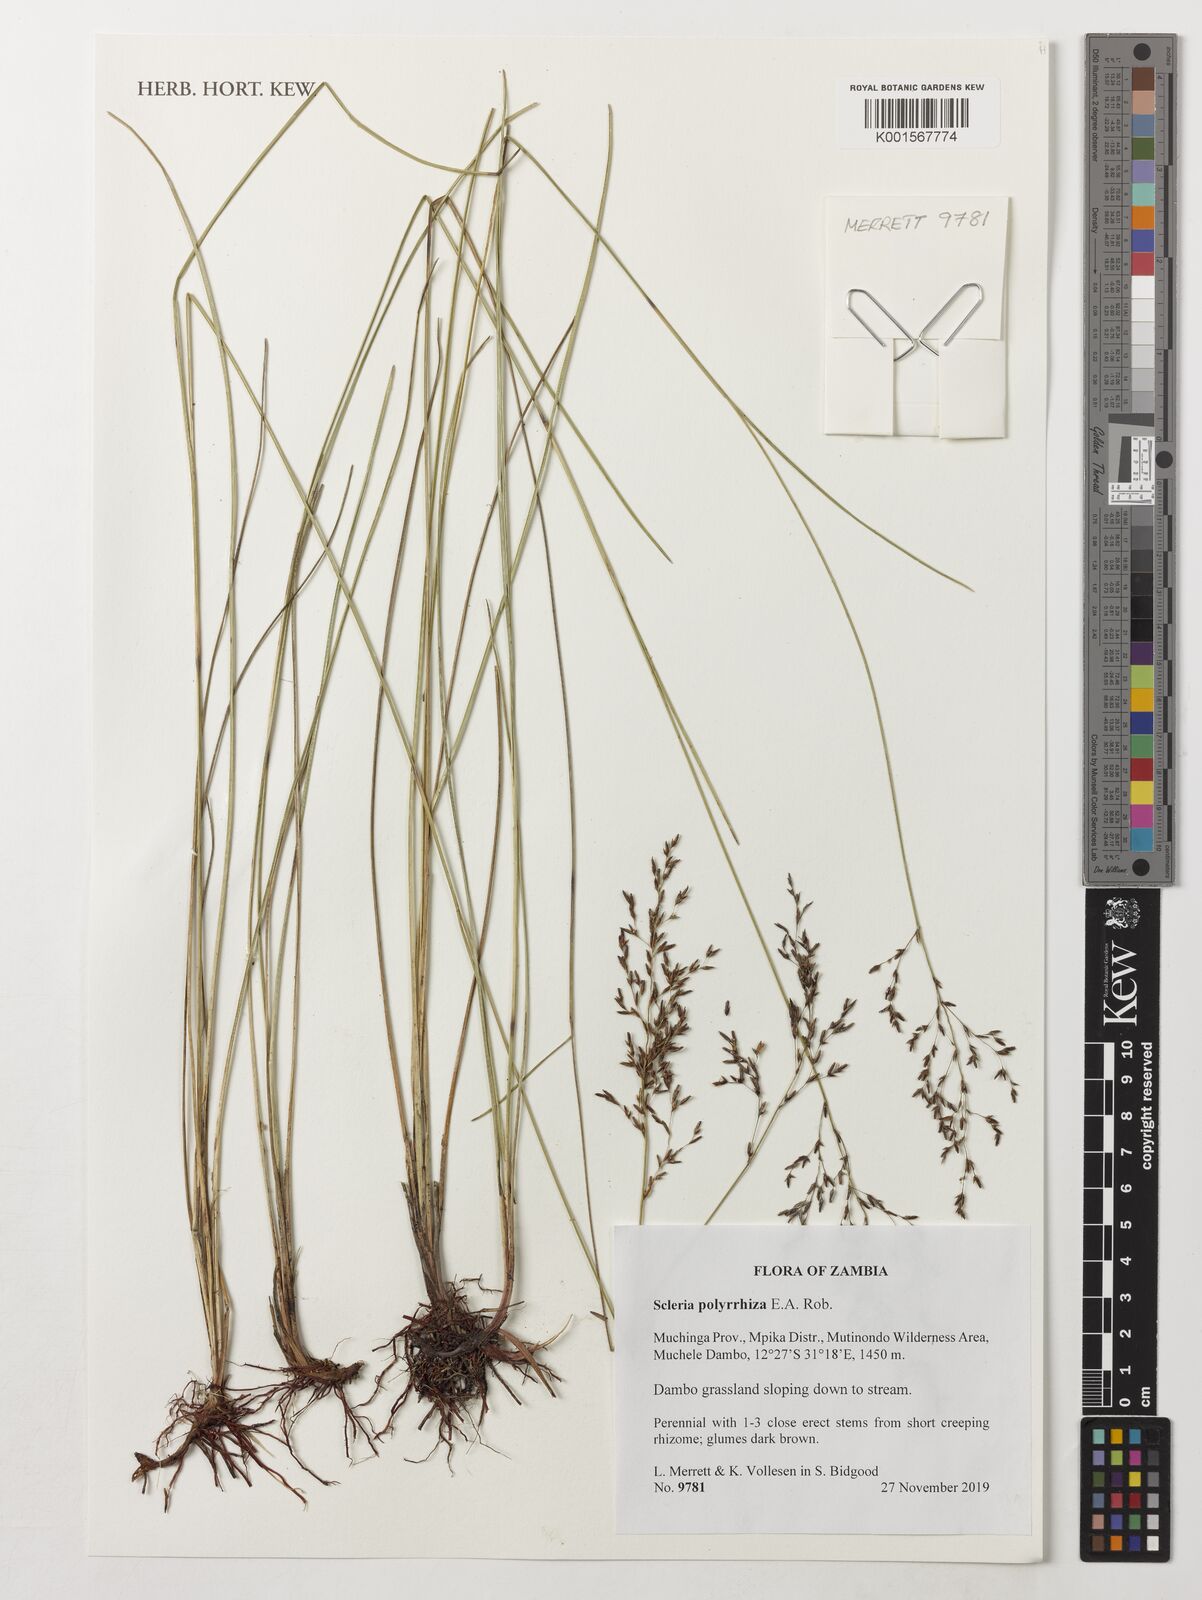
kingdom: Plantae
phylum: Tracheophyta
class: Liliopsida
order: Poales
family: Cyperaceae
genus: Scleria
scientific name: Scleria polyrrhiza
